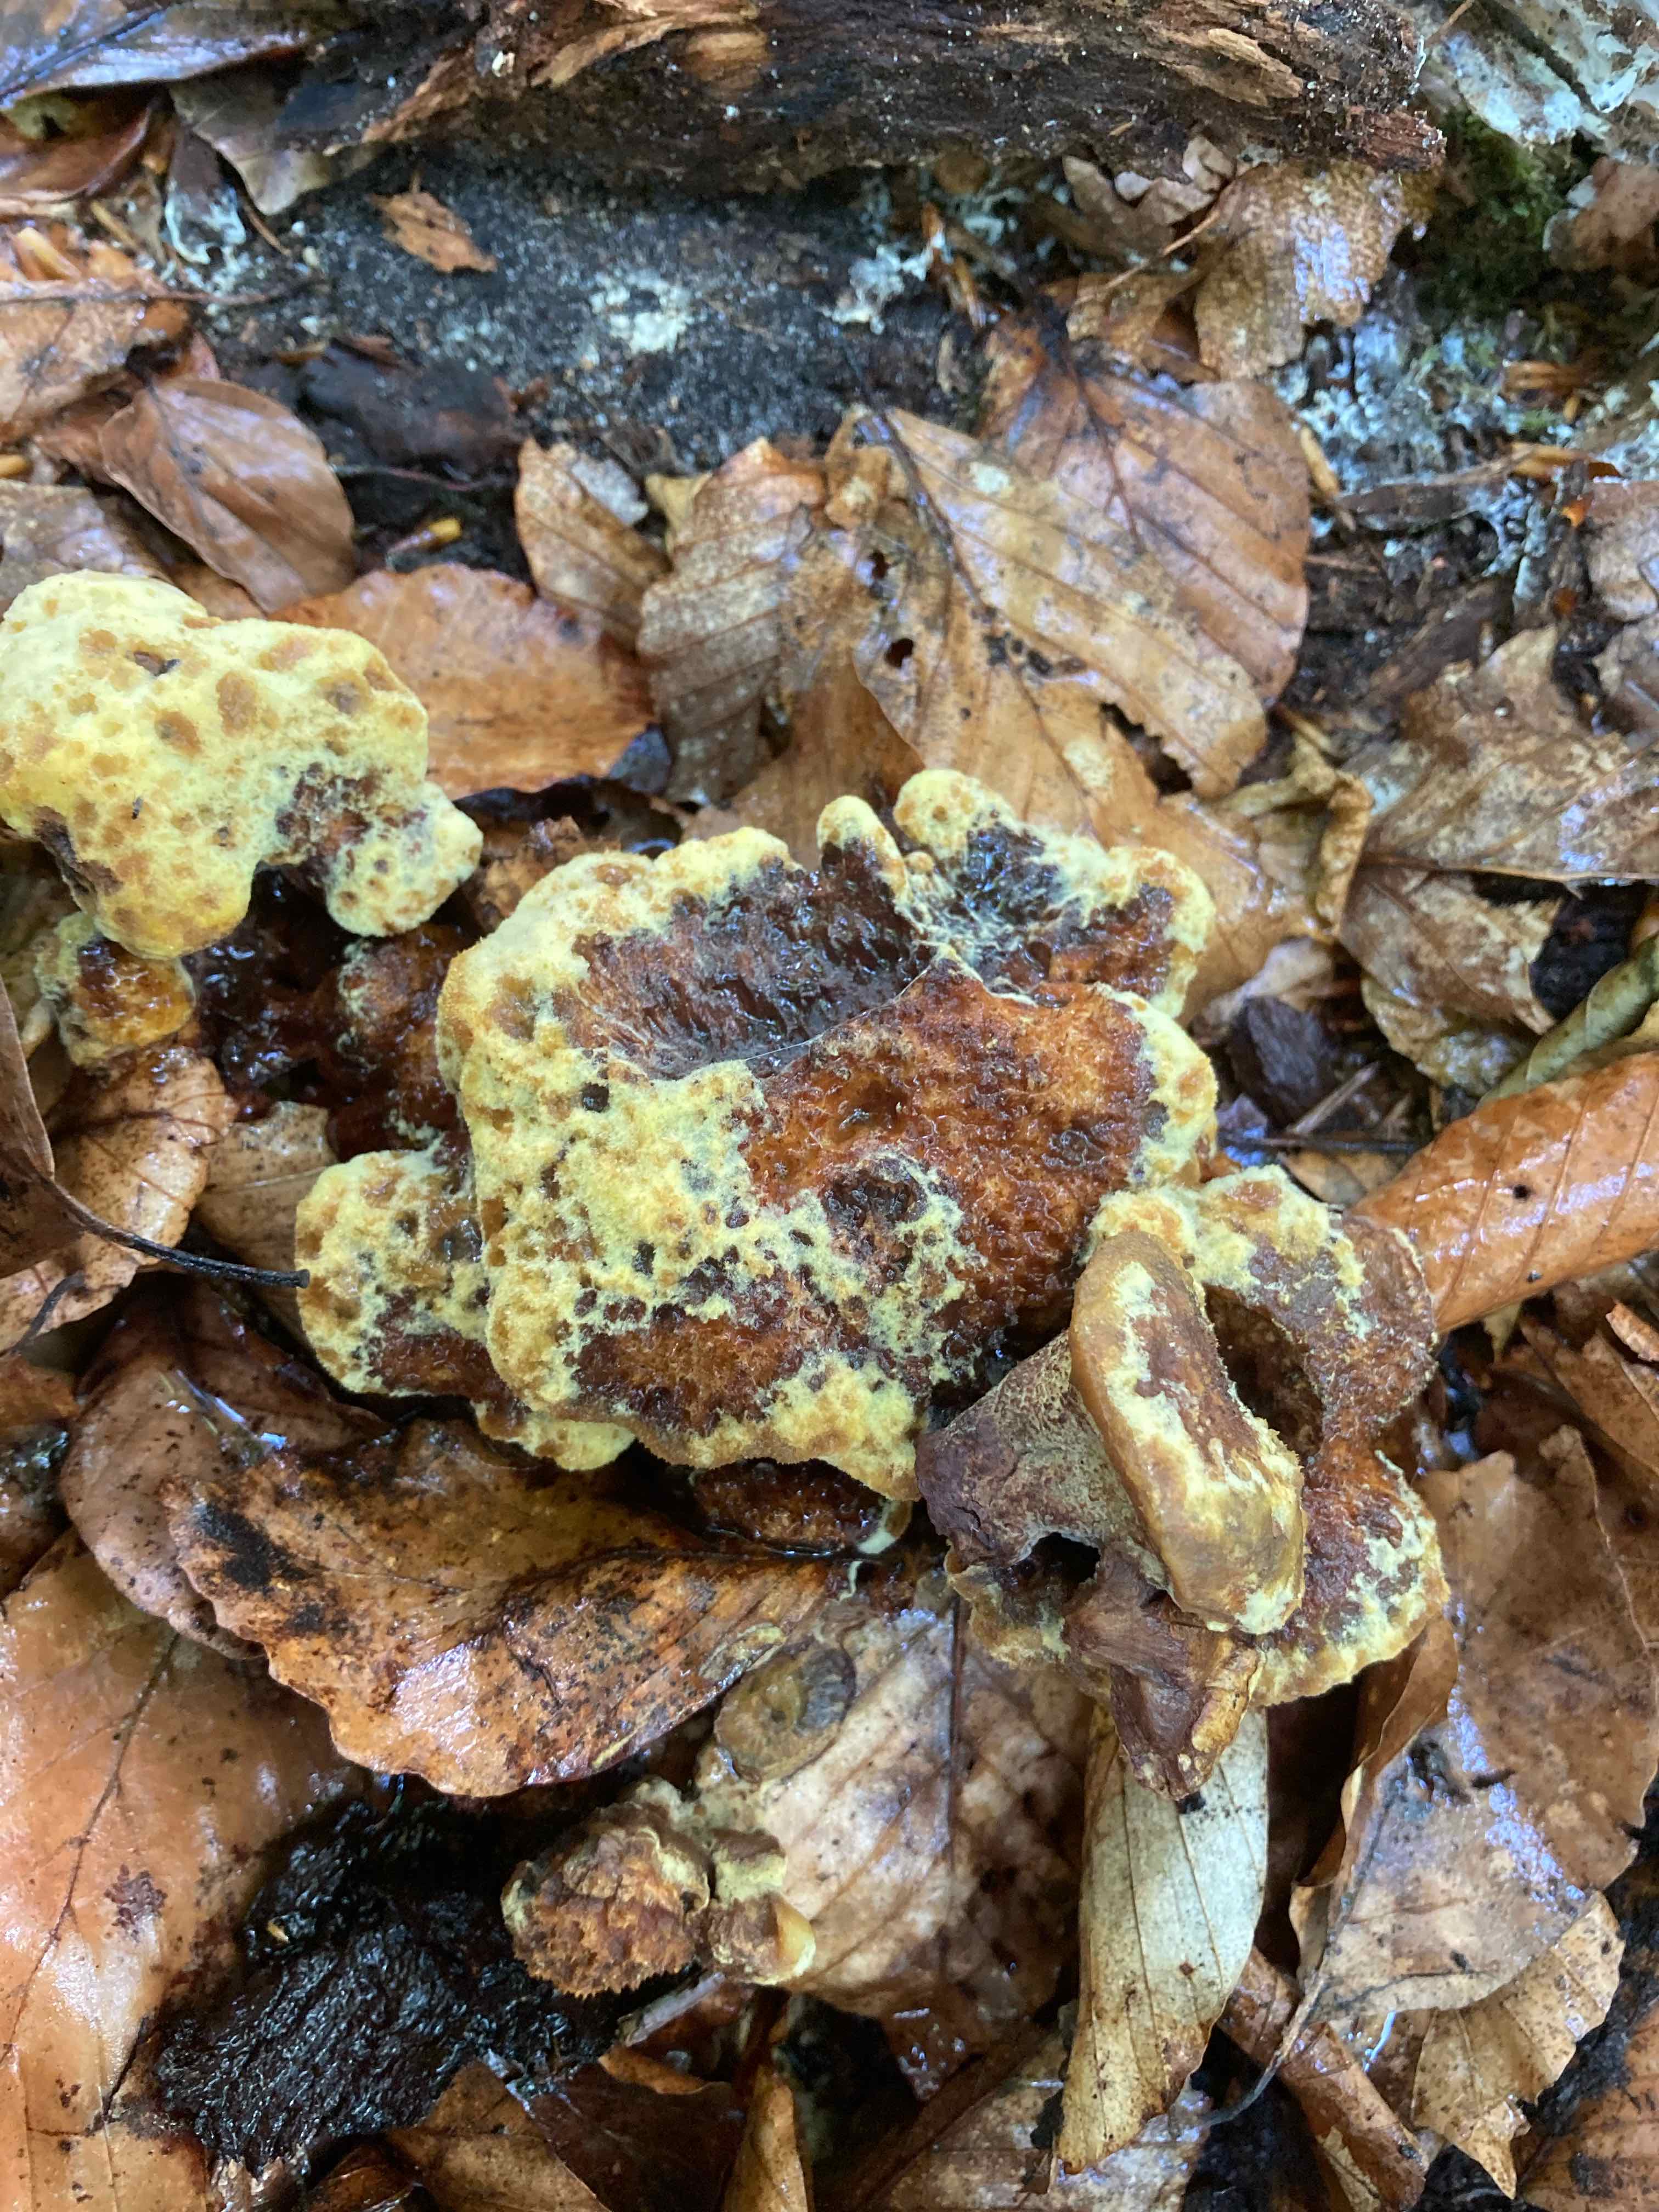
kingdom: Fungi
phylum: Basidiomycota
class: Agaricomycetes
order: Polyporales
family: Laetiporaceae
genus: Phaeolus
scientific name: Phaeolus schweinitzii
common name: brunporesvamp
